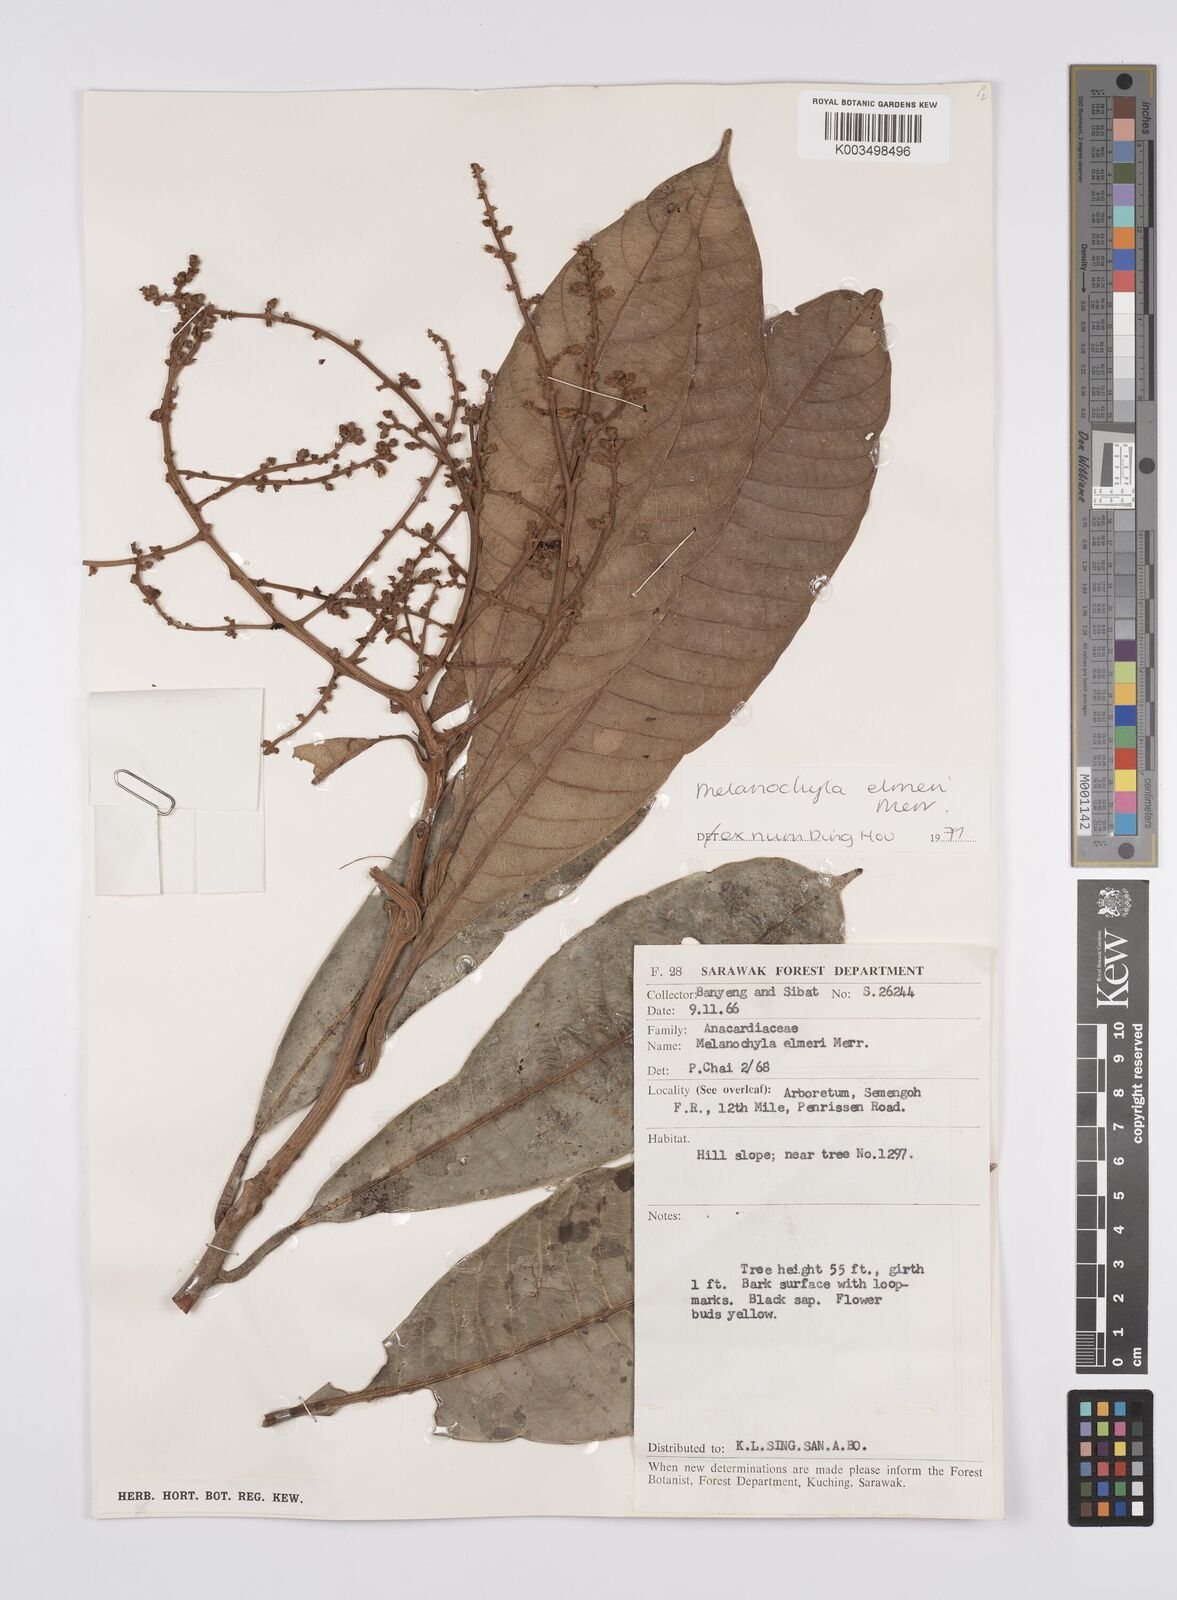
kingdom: Plantae
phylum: Tracheophyta
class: Magnoliopsida
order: Sapindales
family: Anacardiaceae
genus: Melanochyla
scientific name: Melanochyla elmeri
